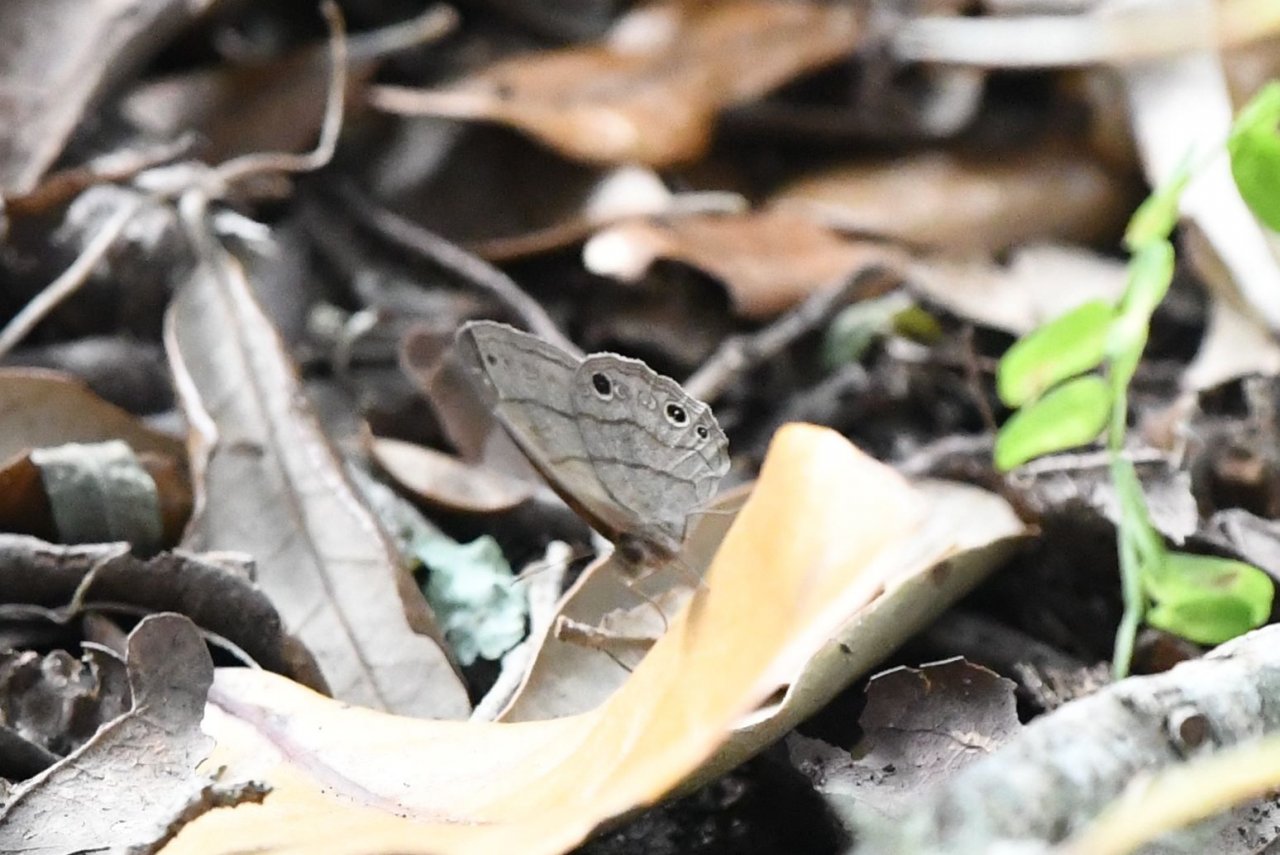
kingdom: Animalia
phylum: Arthropoda
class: Insecta
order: Lepidoptera
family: Nymphalidae
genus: Hermeuptychia
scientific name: Hermeuptychia hermes
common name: Carolina Satyr
